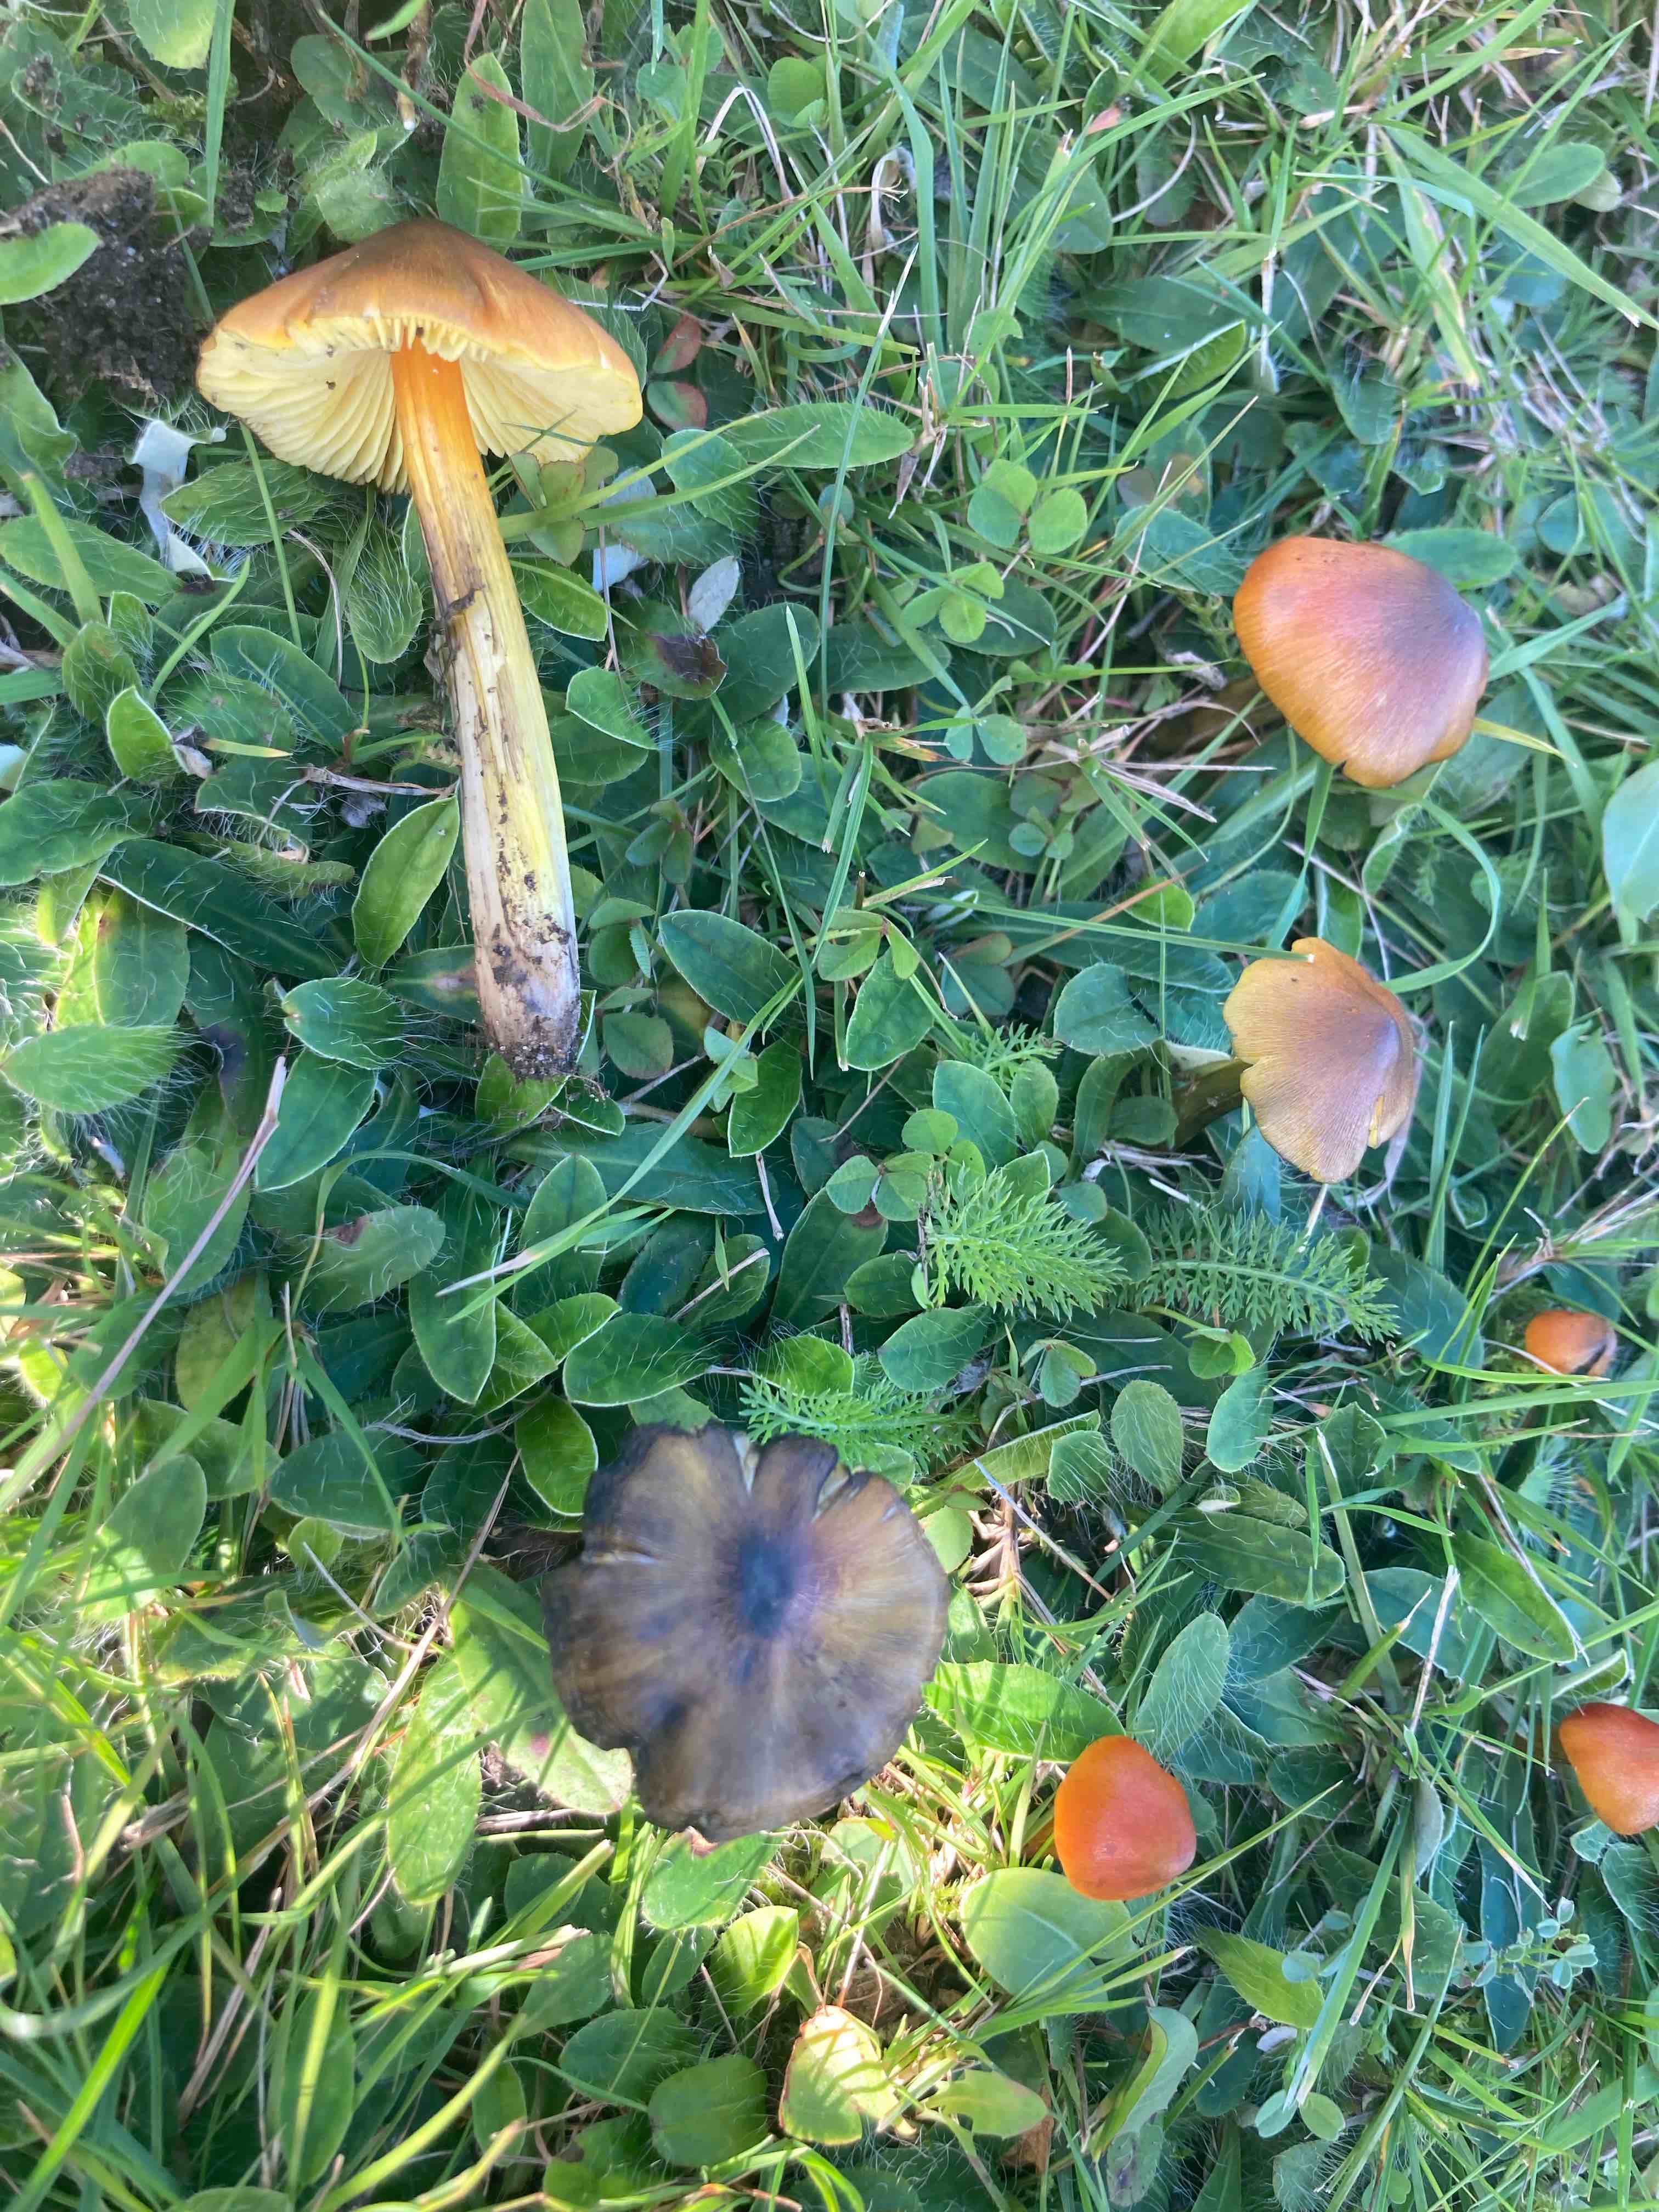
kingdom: Fungi
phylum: Basidiomycota
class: Agaricomycetes
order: Agaricales
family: Hygrophoraceae
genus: Hygrocybe
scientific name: Hygrocybe conica
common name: kegle-vokshat
